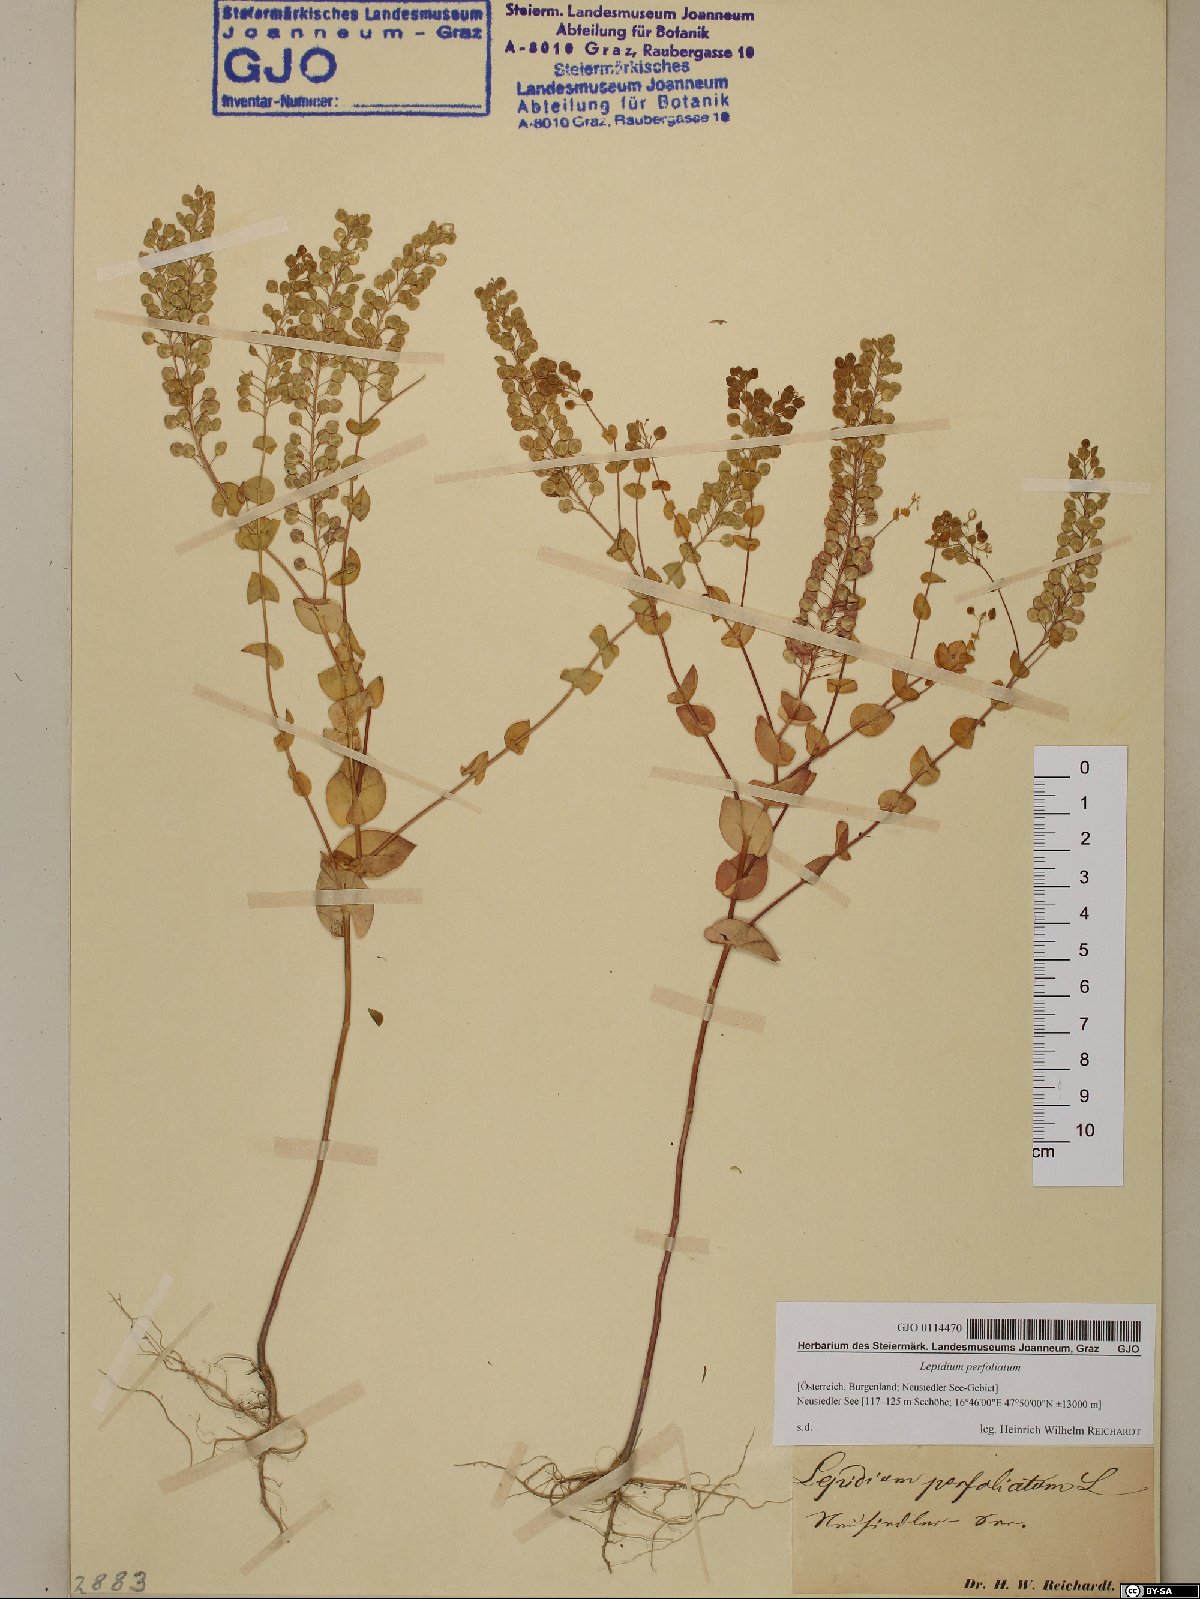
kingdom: Plantae
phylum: Tracheophyta
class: Magnoliopsida
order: Brassicales
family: Brassicaceae
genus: Lepidium
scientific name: Lepidium perfoliatum
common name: Perfoliate pepperwort
